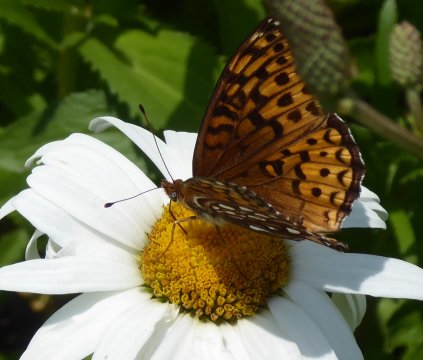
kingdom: Animalia
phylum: Arthropoda
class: Insecta
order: Lepidoptera
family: Nymphalidae
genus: Speyeria
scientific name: Speyeria atlantis
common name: Atlantis Fritillary
